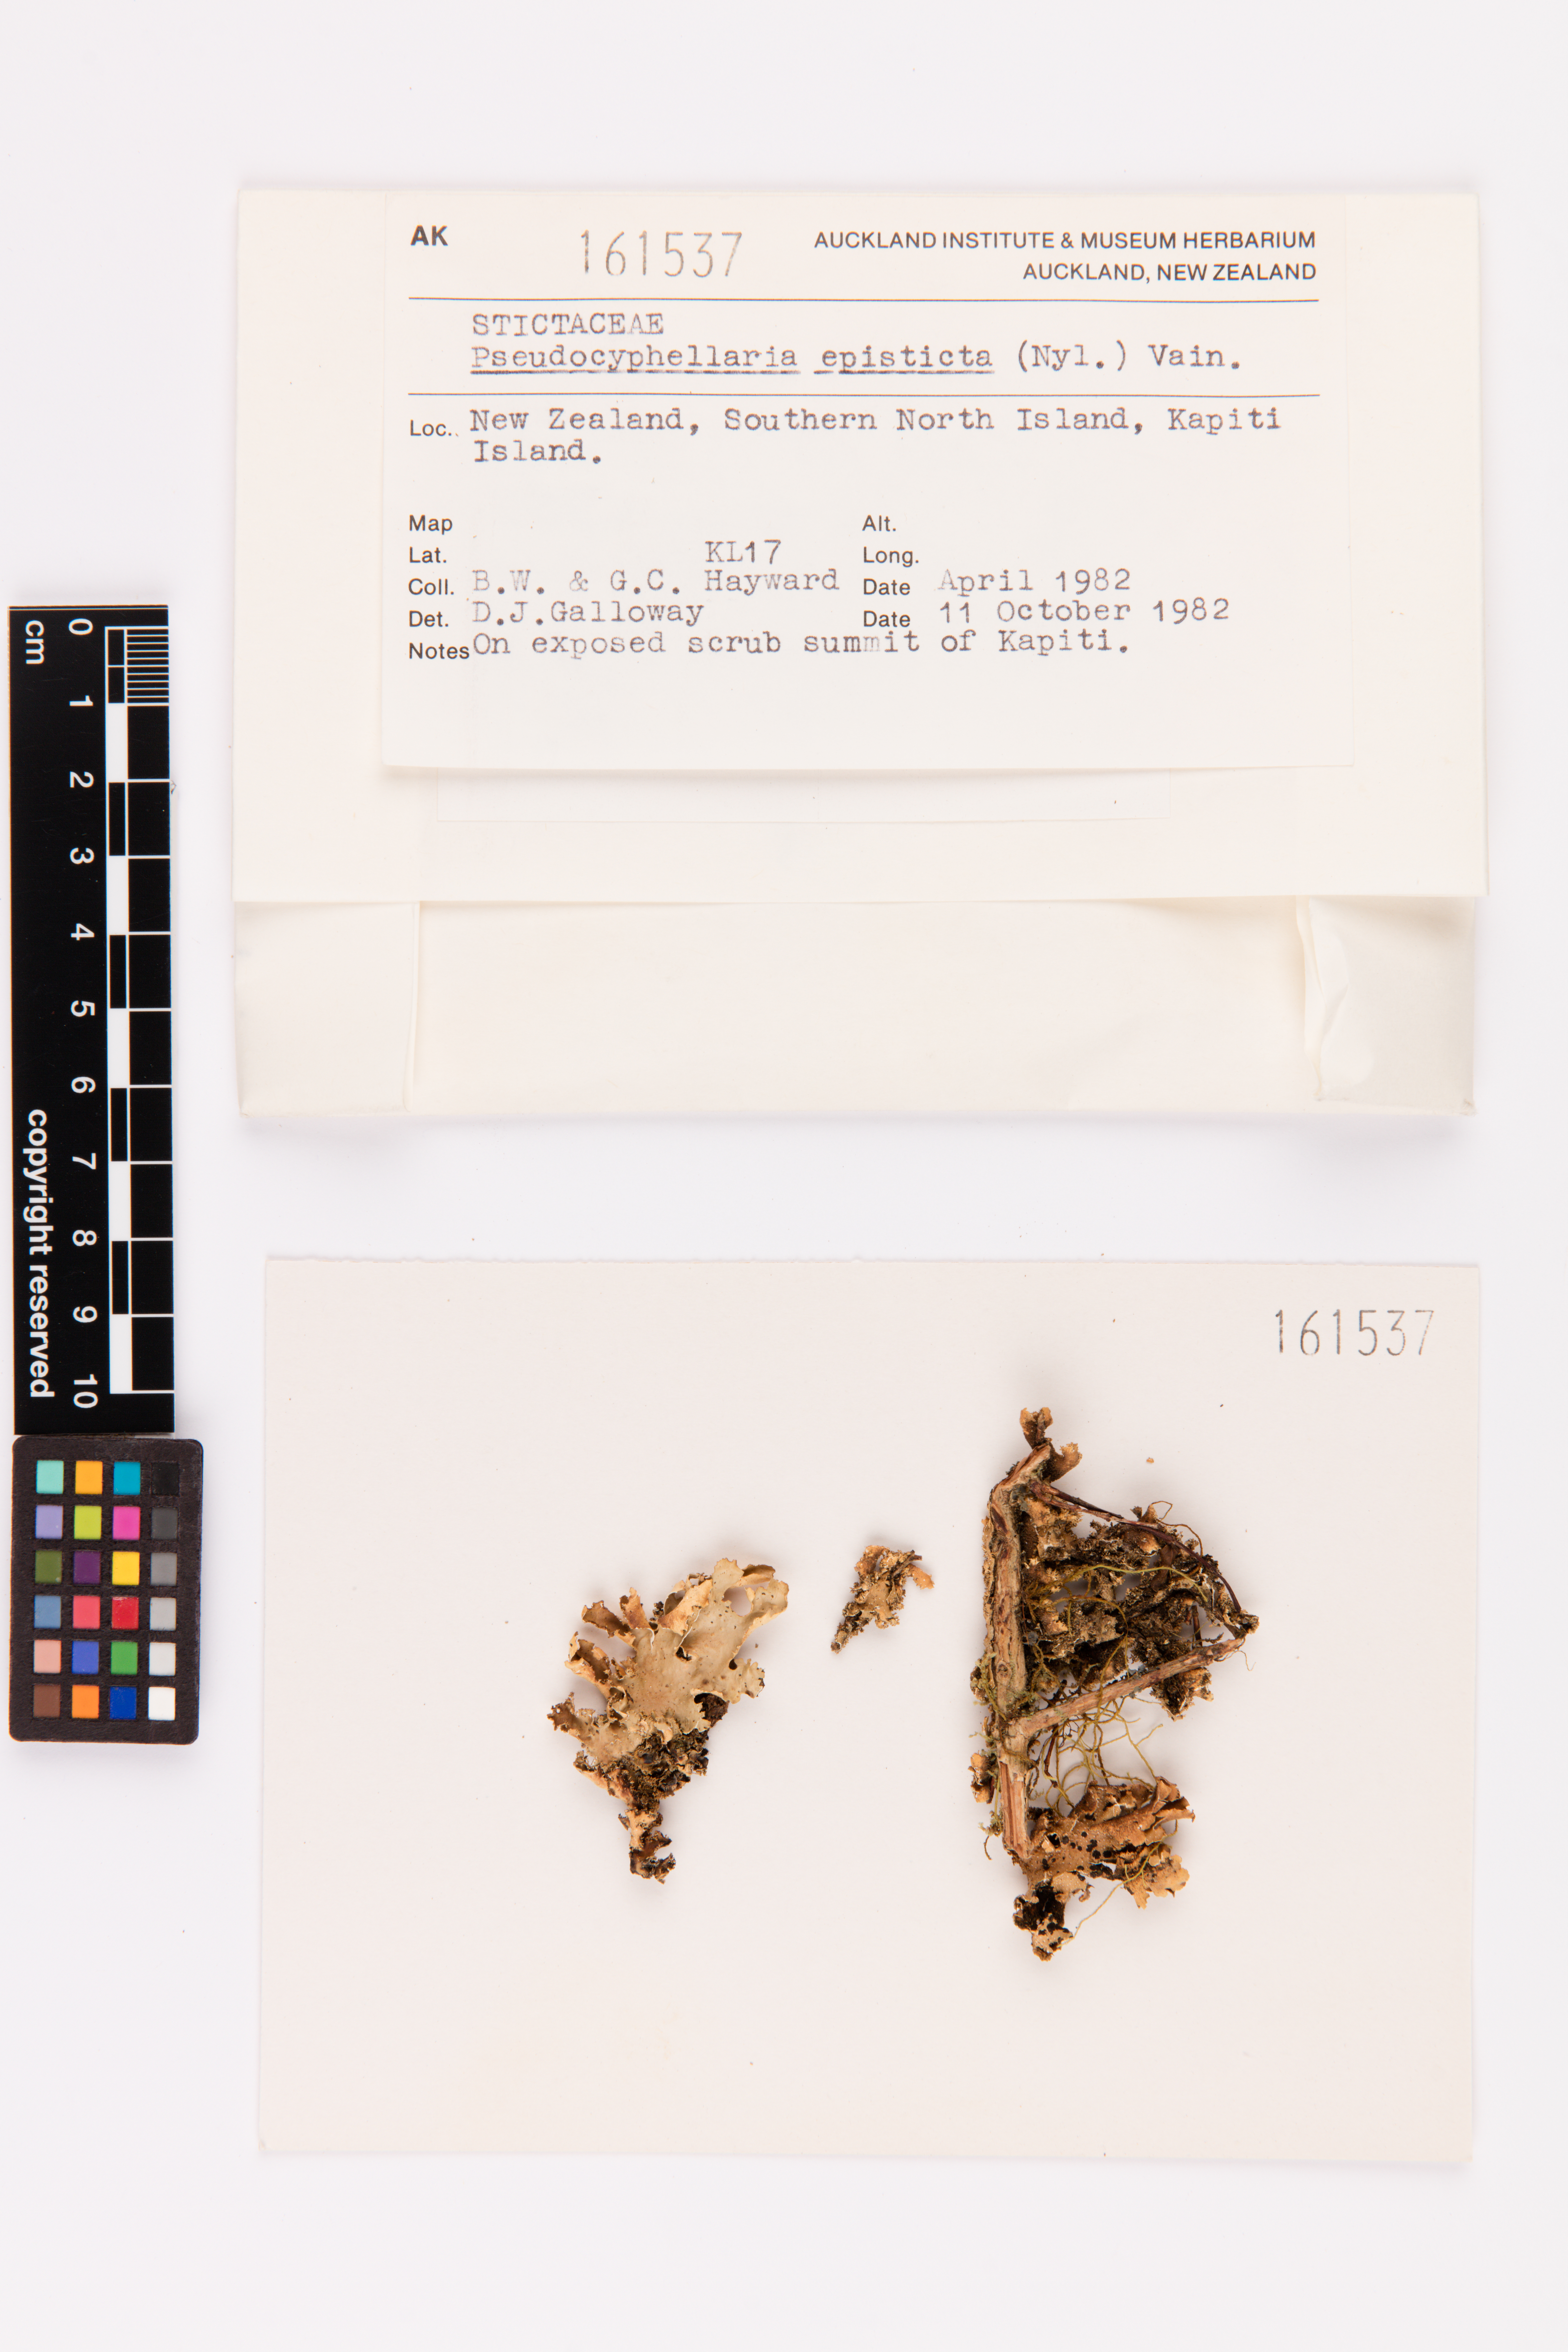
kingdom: Fungi
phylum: Ascomycota
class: Lecanoromycetes
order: Peltigerales
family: Lobariaceae
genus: Pseudocyphellaria
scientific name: Pseudocyphellaria episticta
